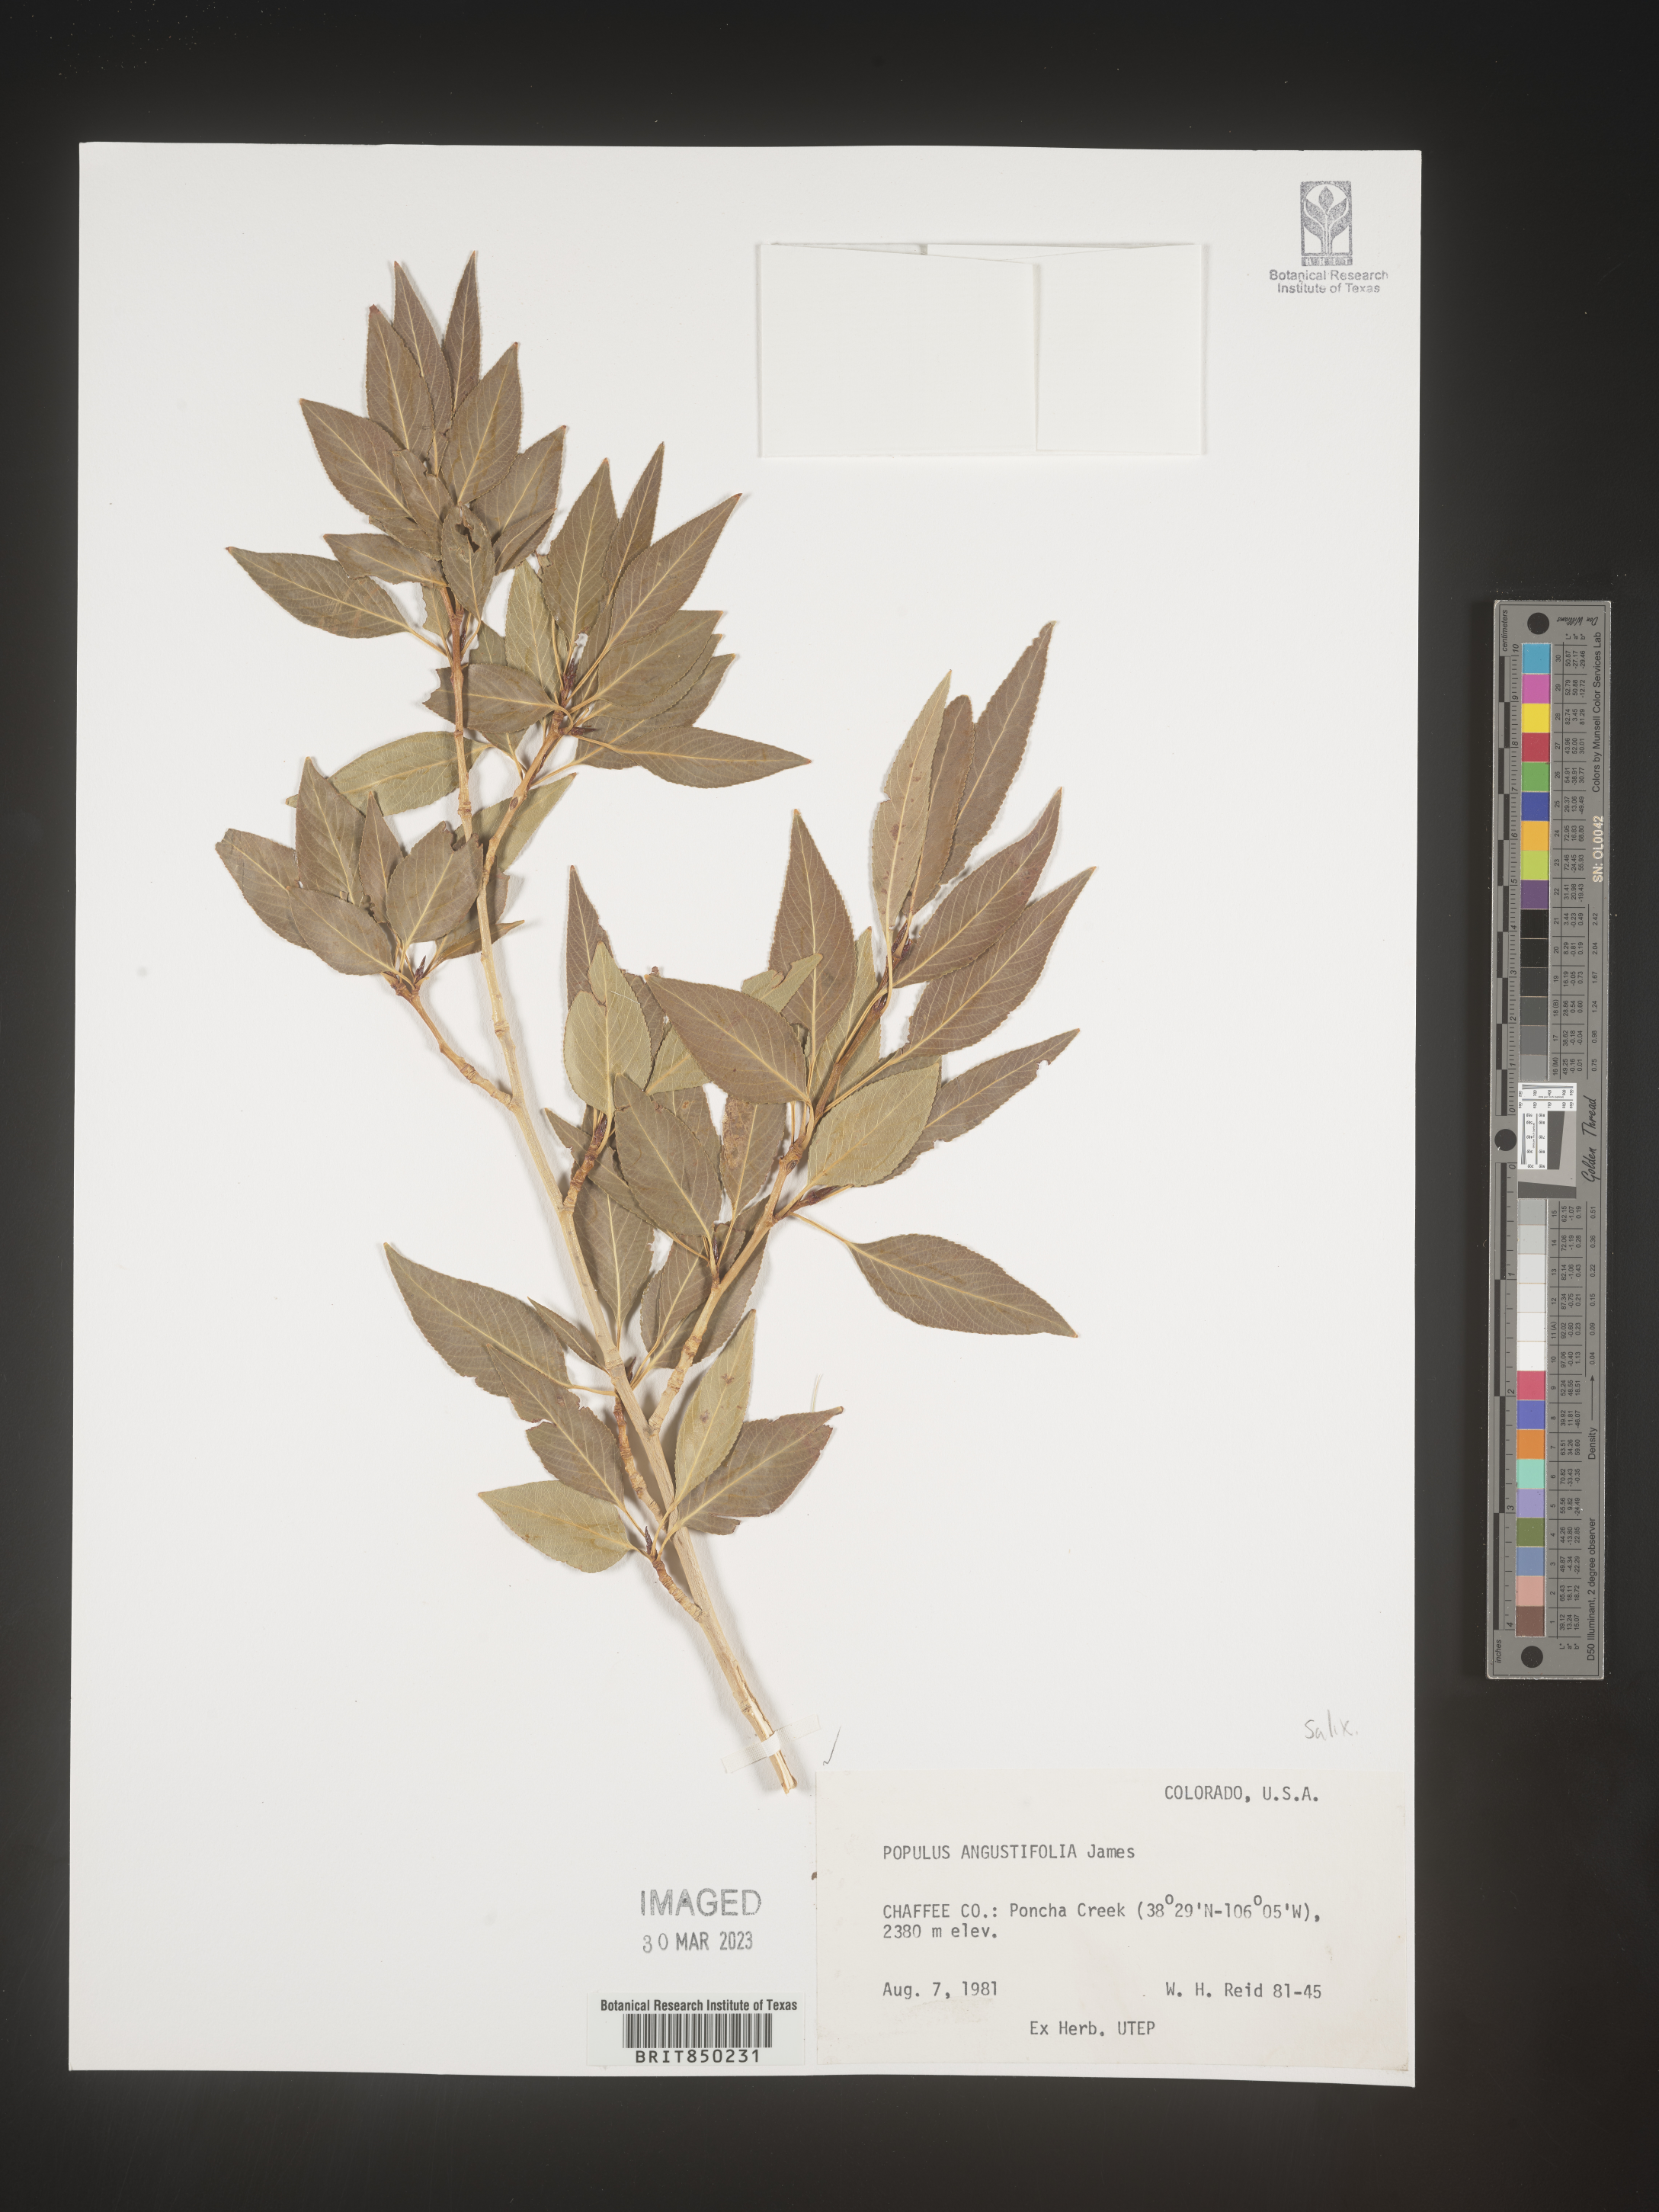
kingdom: Plantae
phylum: Tracheophyta
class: Magnoliopsida
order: Malpighiales
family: Salicaceae
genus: Populus
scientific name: Populus angustifolia
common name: Willow cottonwood
